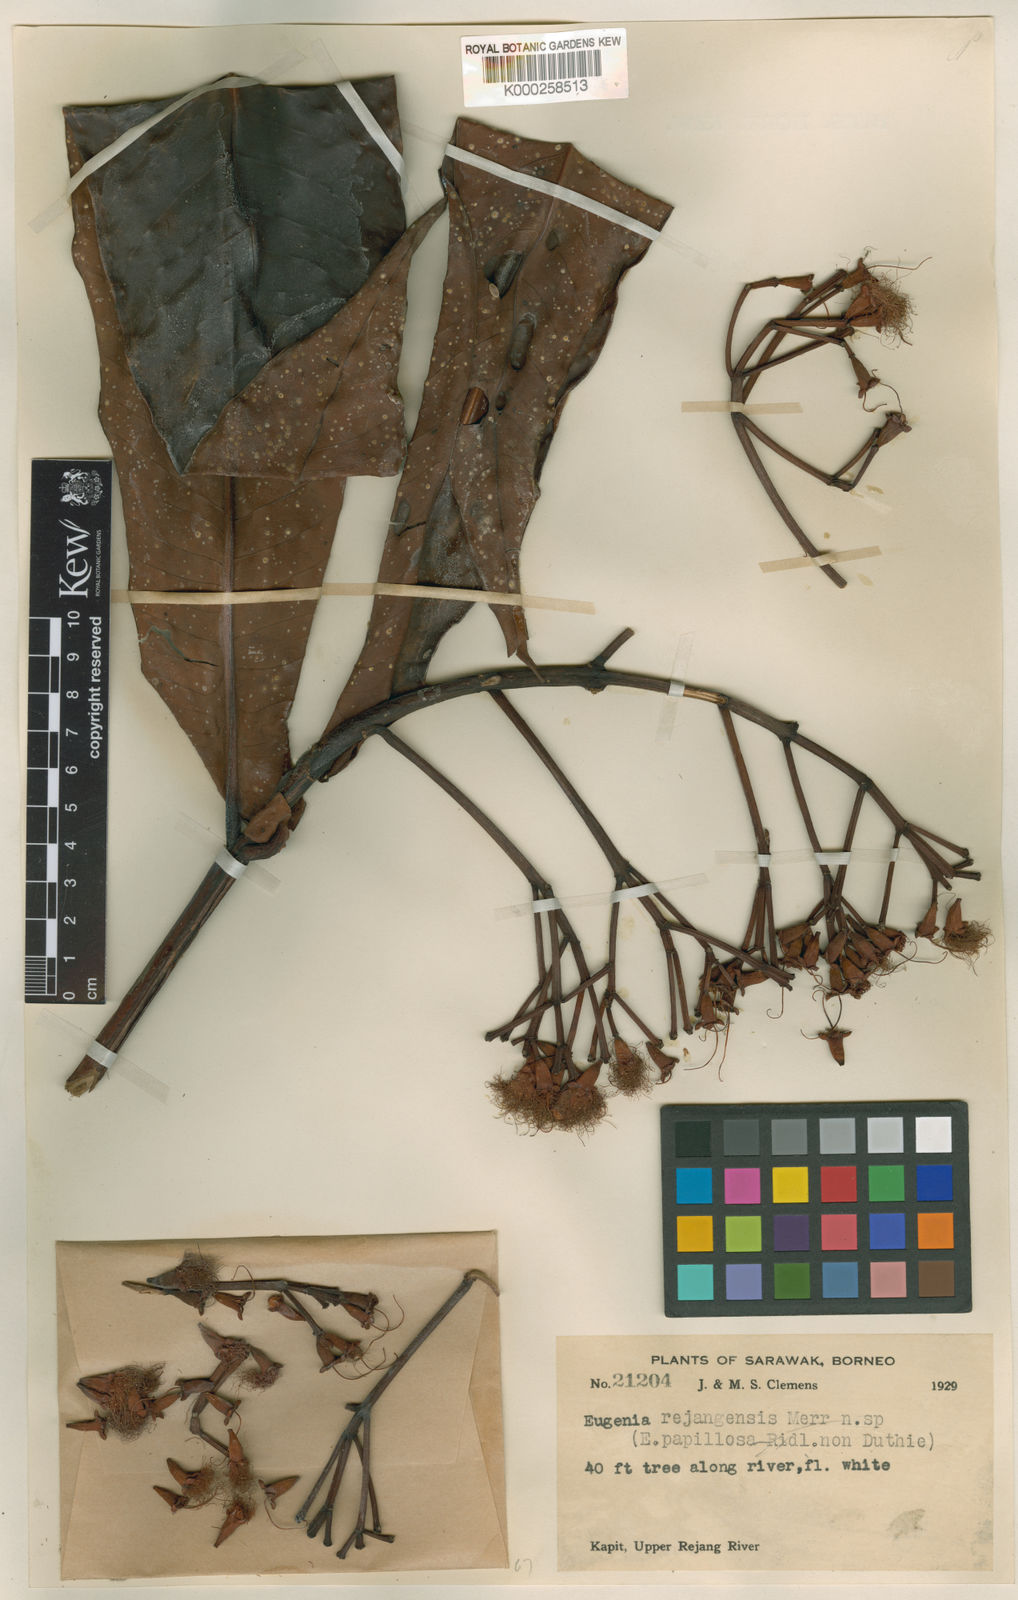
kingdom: Plantae
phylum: Tracheophyta
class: Magnoliopsida
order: Myrtales
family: Myrtaceae
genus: Syzygium
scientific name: Syzygium rejangense
